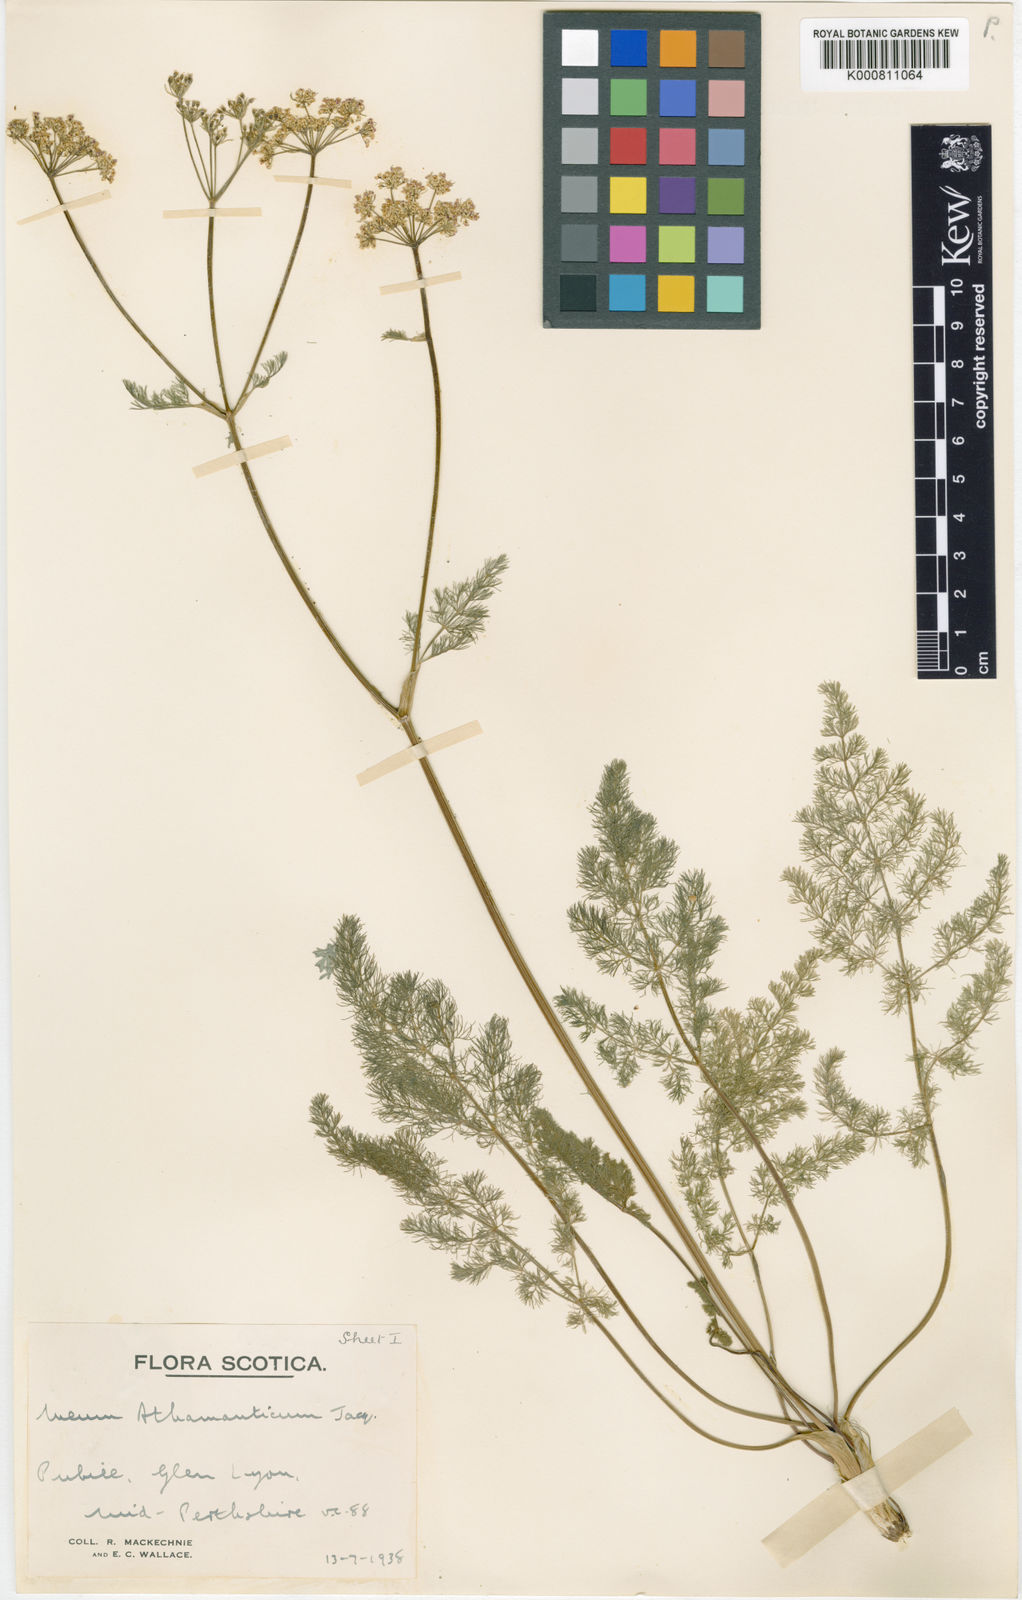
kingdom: Plantae
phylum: Tracheophyta
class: Magnoliopsida
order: Apiales
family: Apiaceae
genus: Meum
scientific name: Meum athamanticum
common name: Spignel
